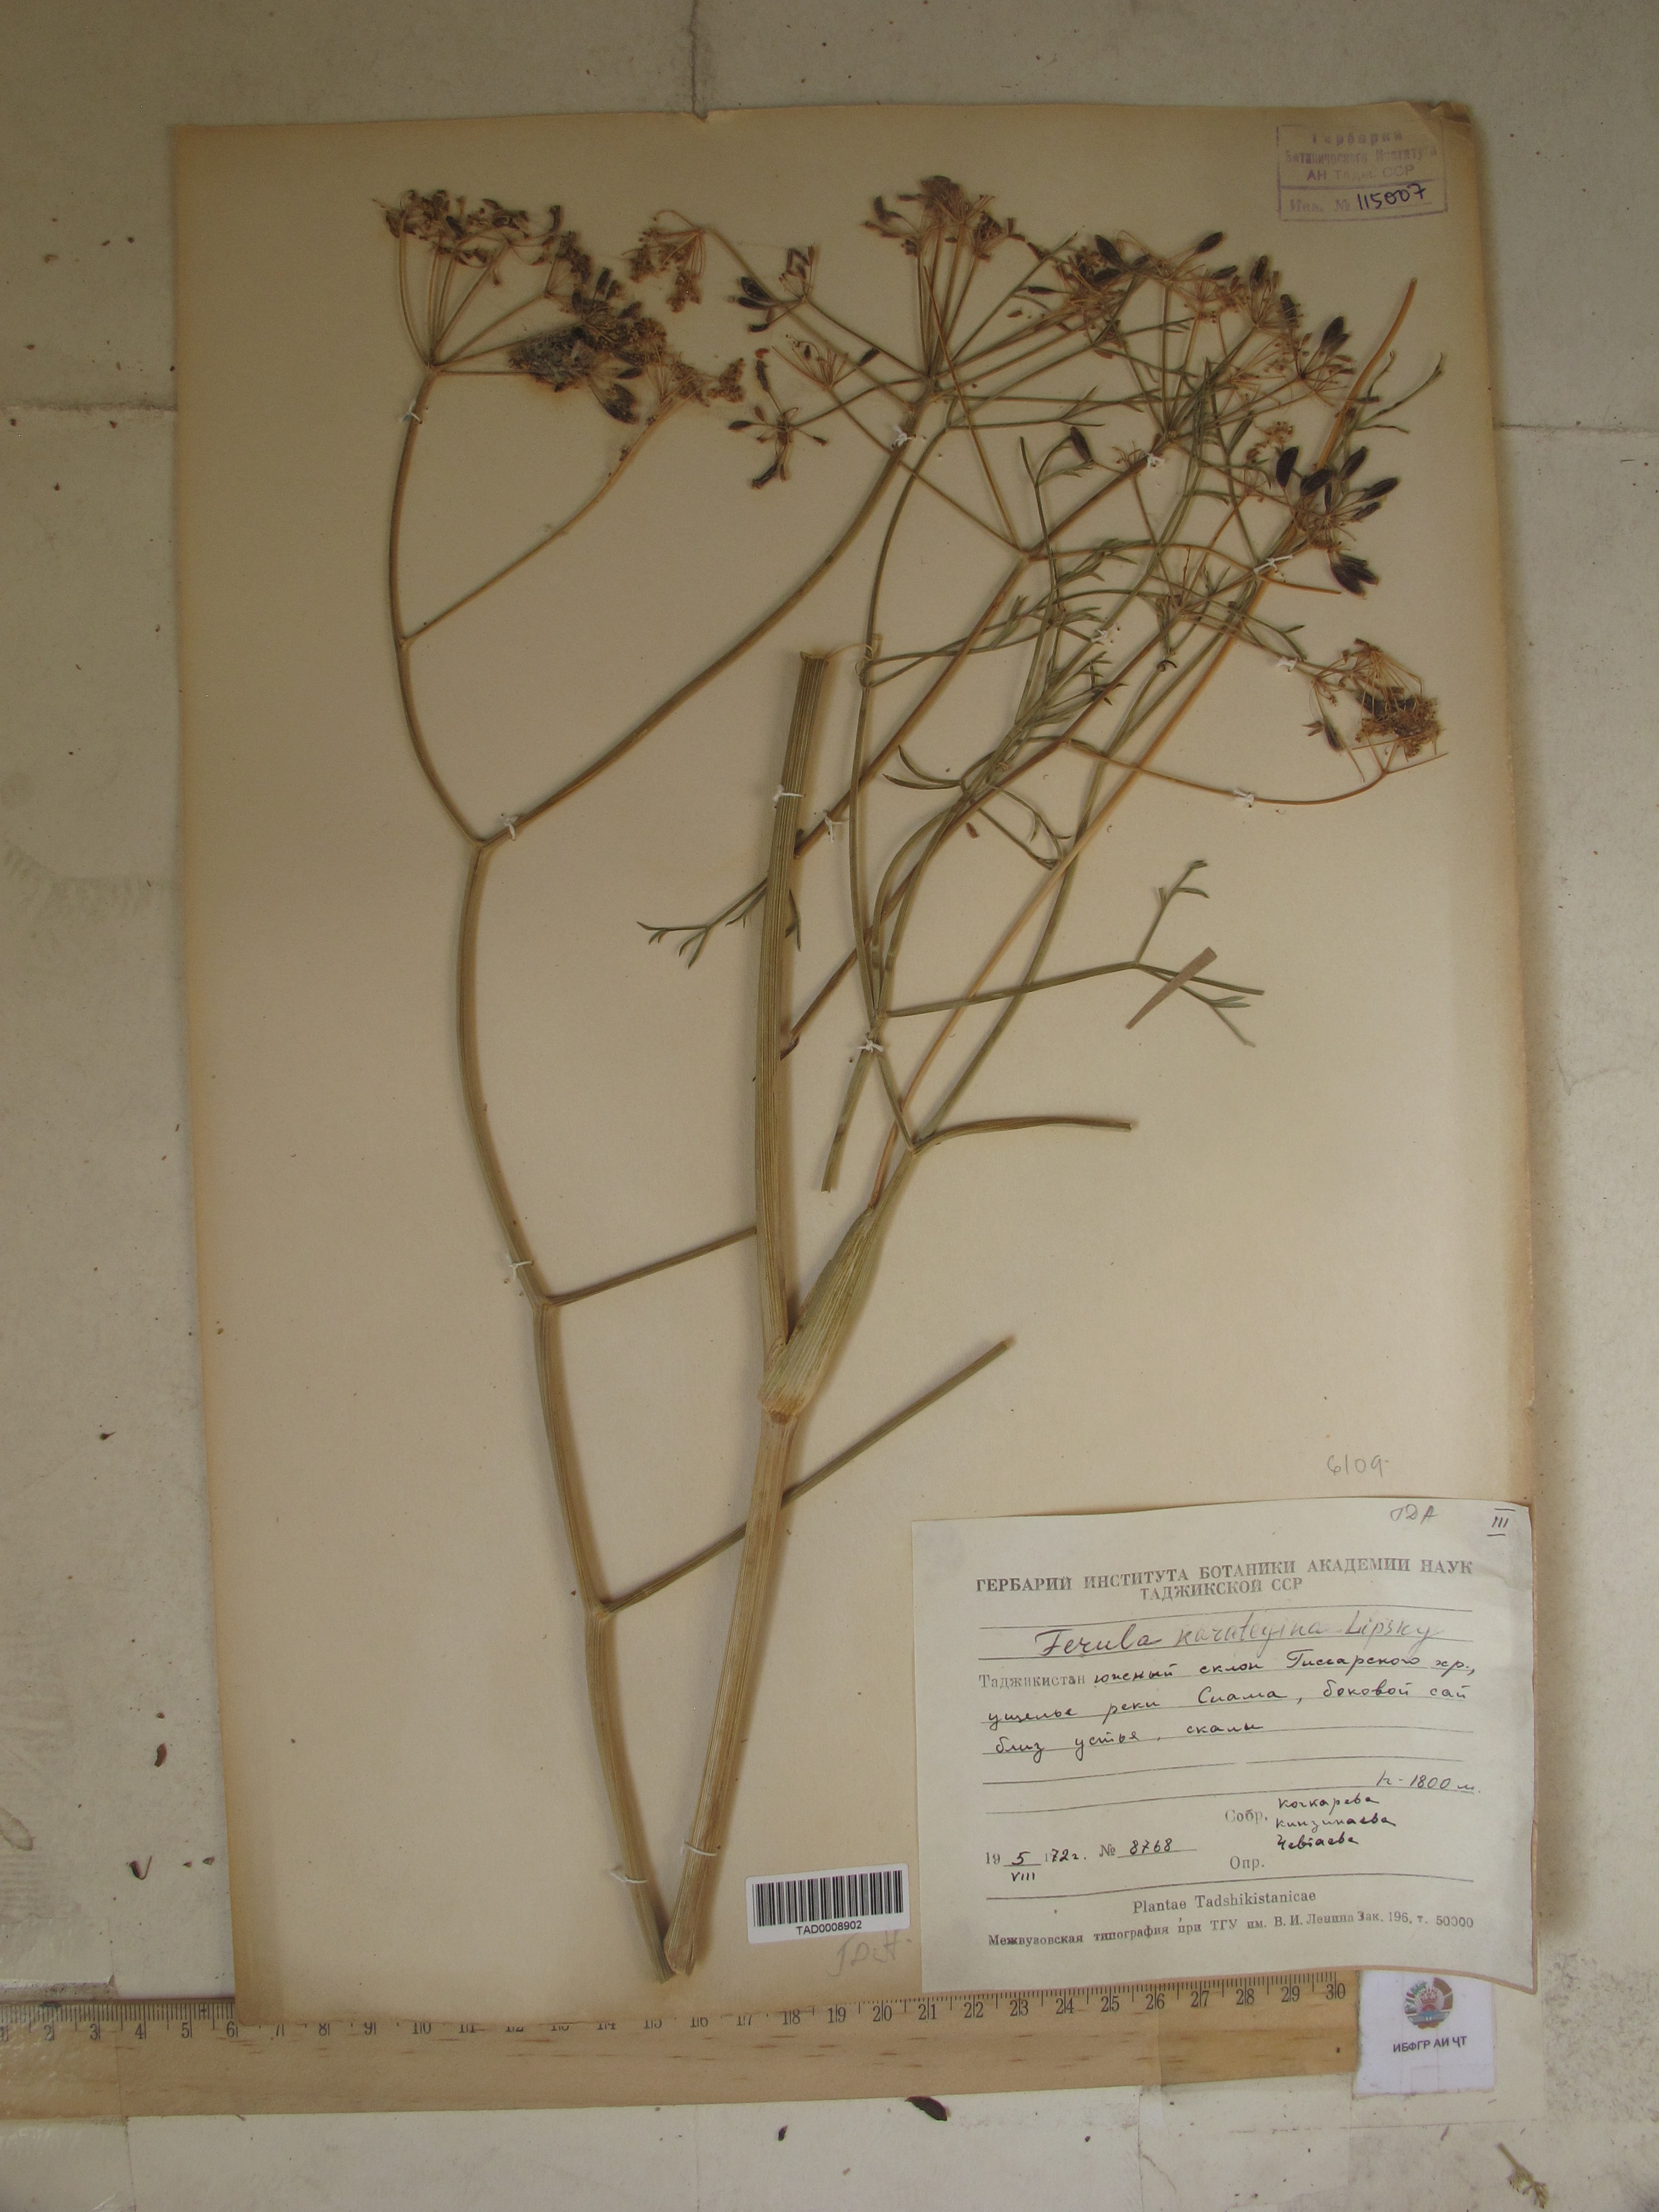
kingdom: Plantae
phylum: Tracheophyta
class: Magnoliopsida
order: Apiales
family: Apiaceae
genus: Ferula
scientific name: Ferula karategina
